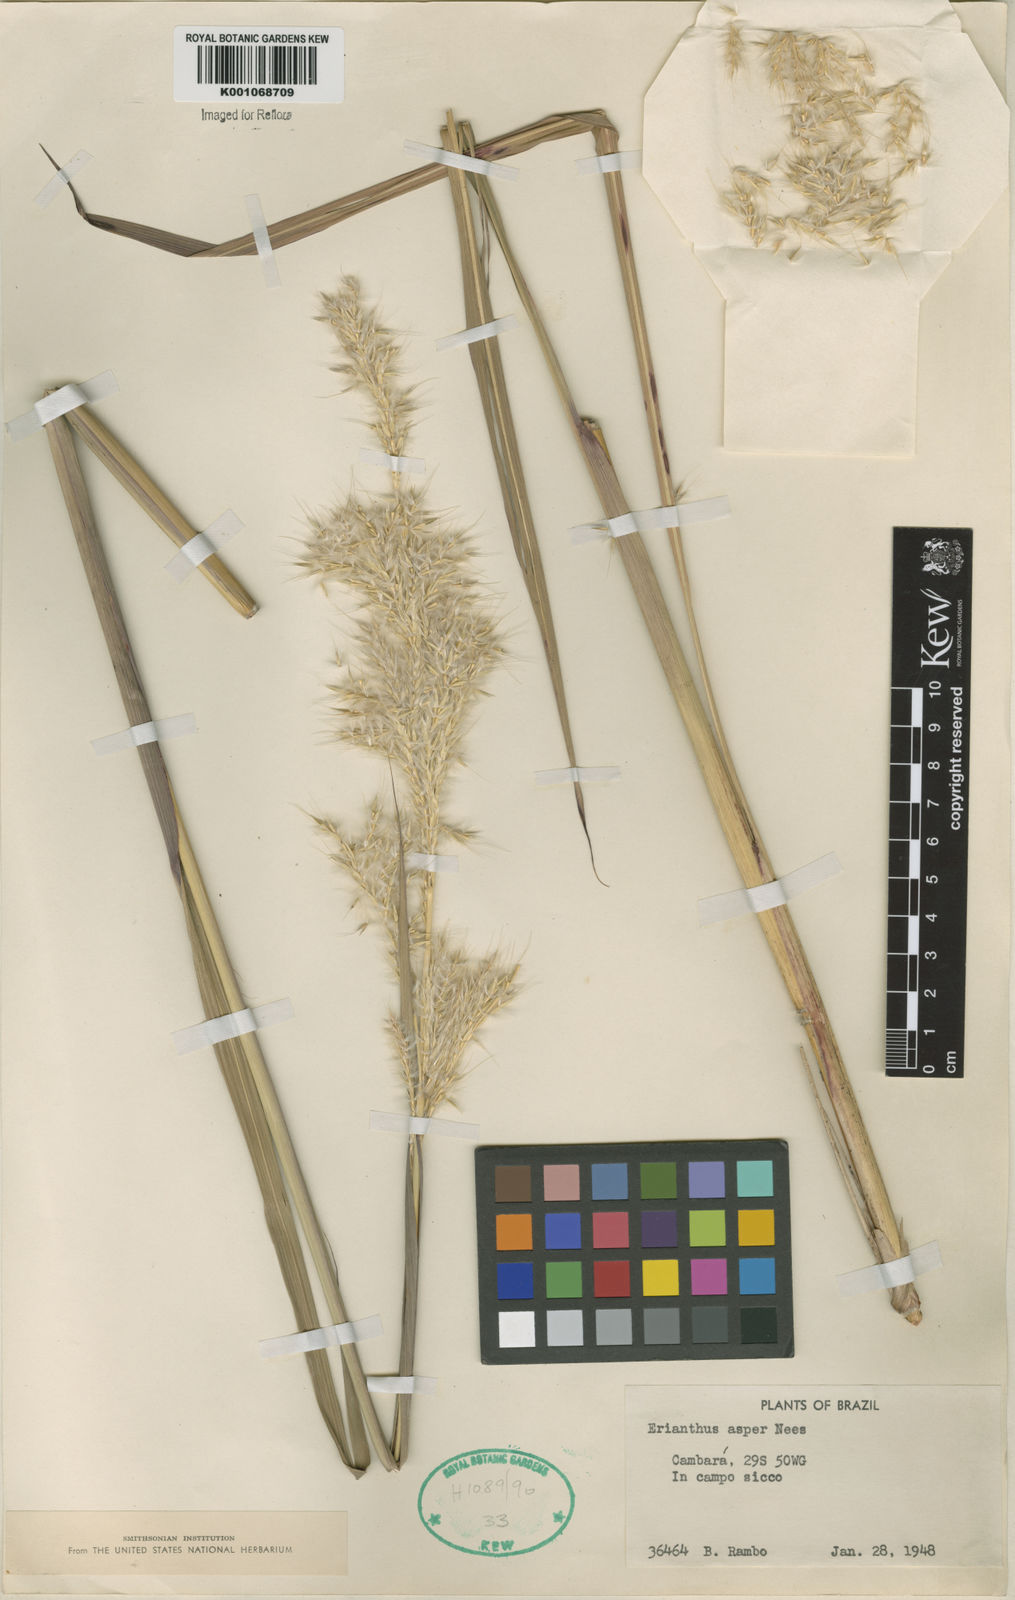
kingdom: Plantae
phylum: Tracheophyta
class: Liliopsida
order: Poales
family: Poaceae
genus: Erianthus
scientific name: Erianthus asper
